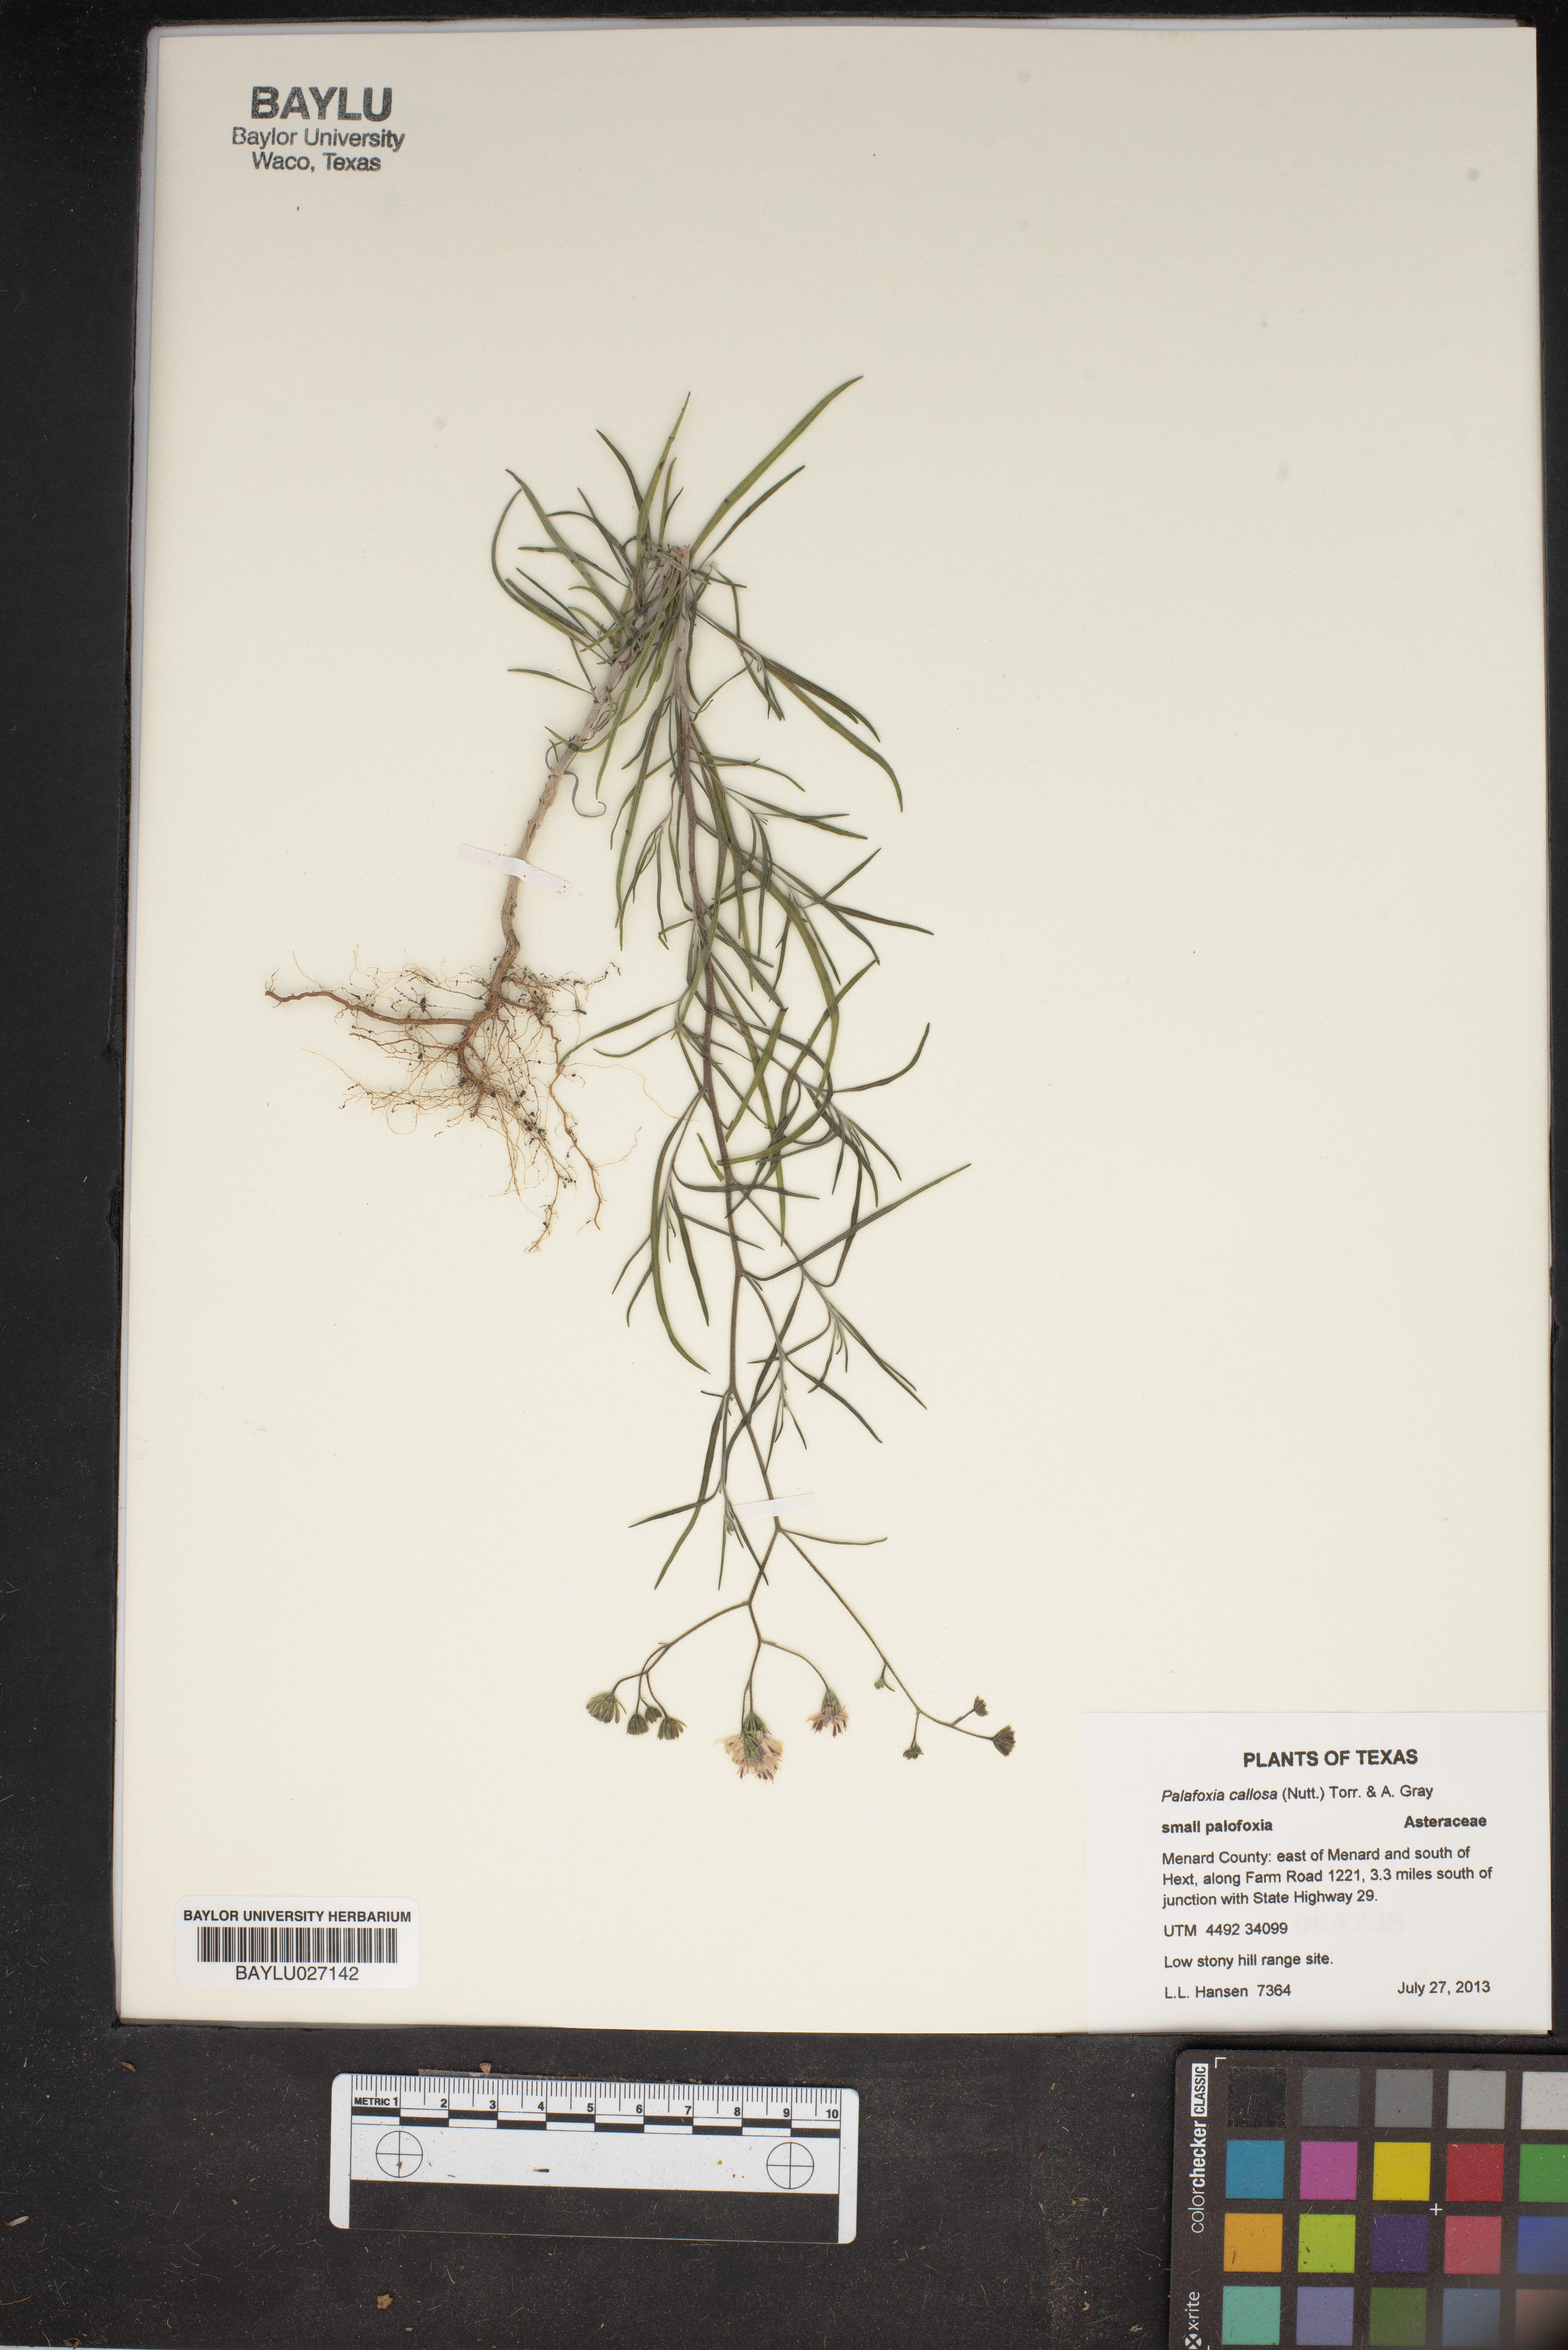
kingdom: Plantae
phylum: Tracheophyta
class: Magnoliopsida
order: Asterales
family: Asteraceae
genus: Palafoxia
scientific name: Palafoxia callosa
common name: Small palafox
